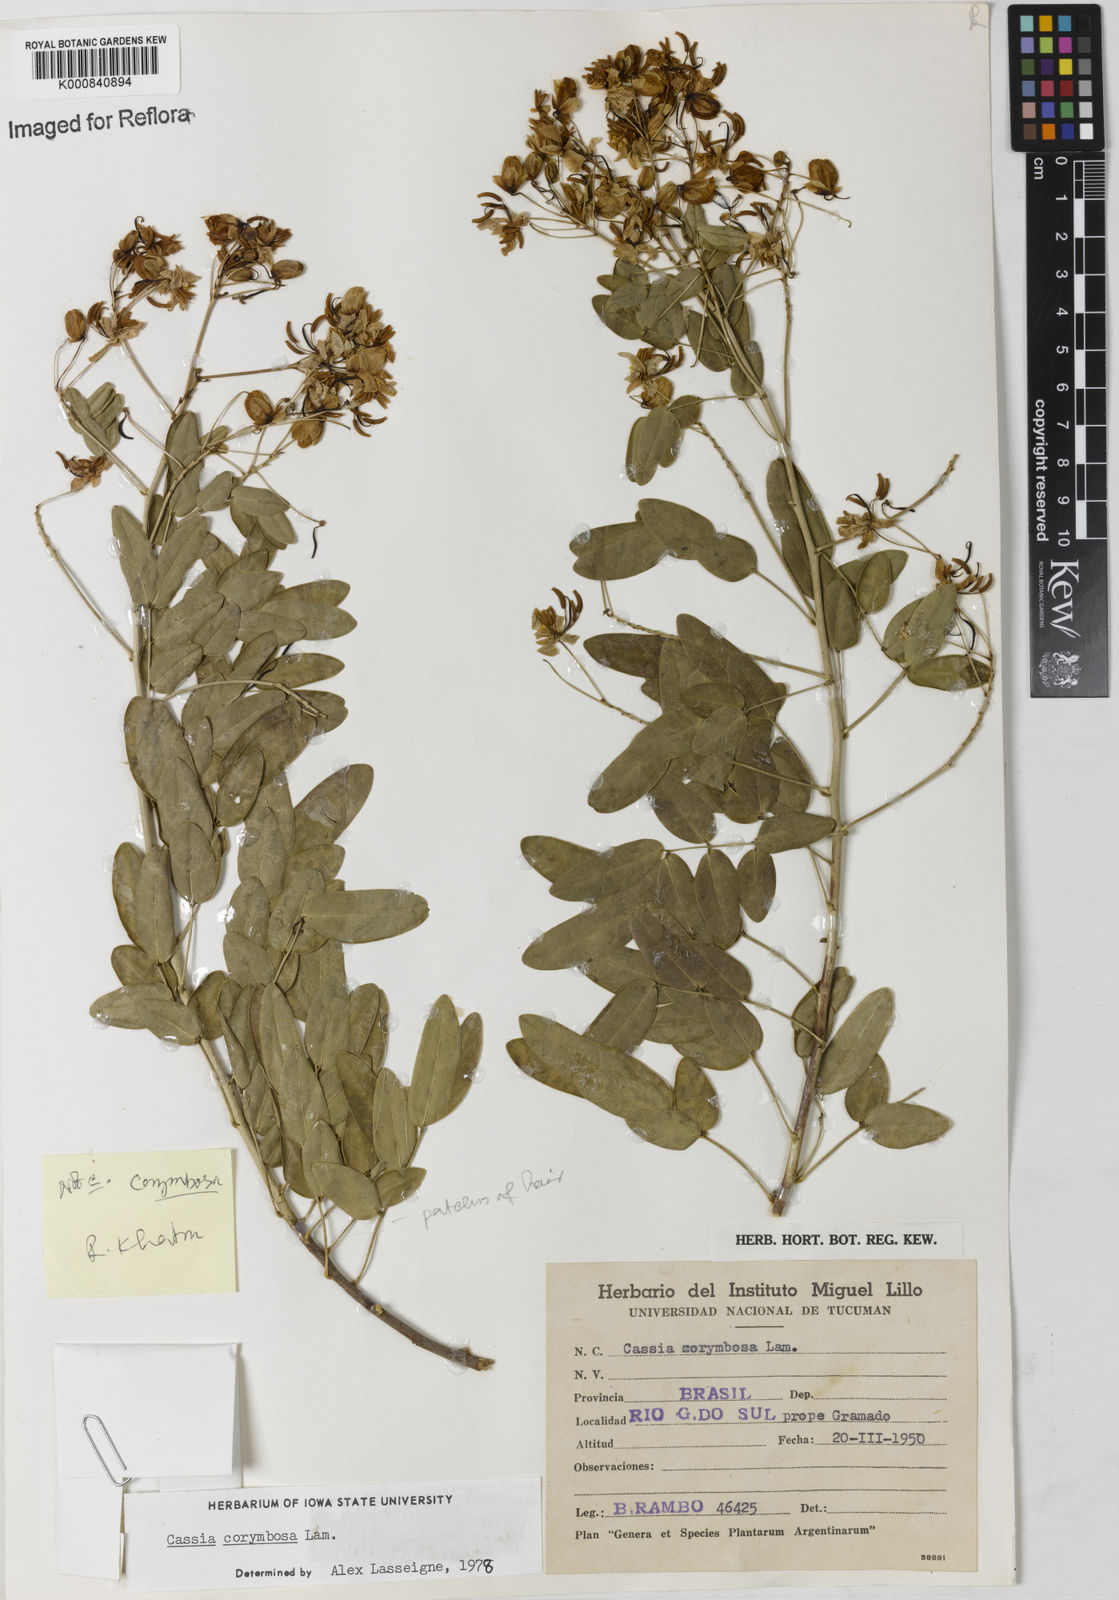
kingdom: Plantae
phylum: Tracheophyta
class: Magnoliopsida
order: Fabales
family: Fabaceae
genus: Senna
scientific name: Senna corymbosa
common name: Argentine senna
